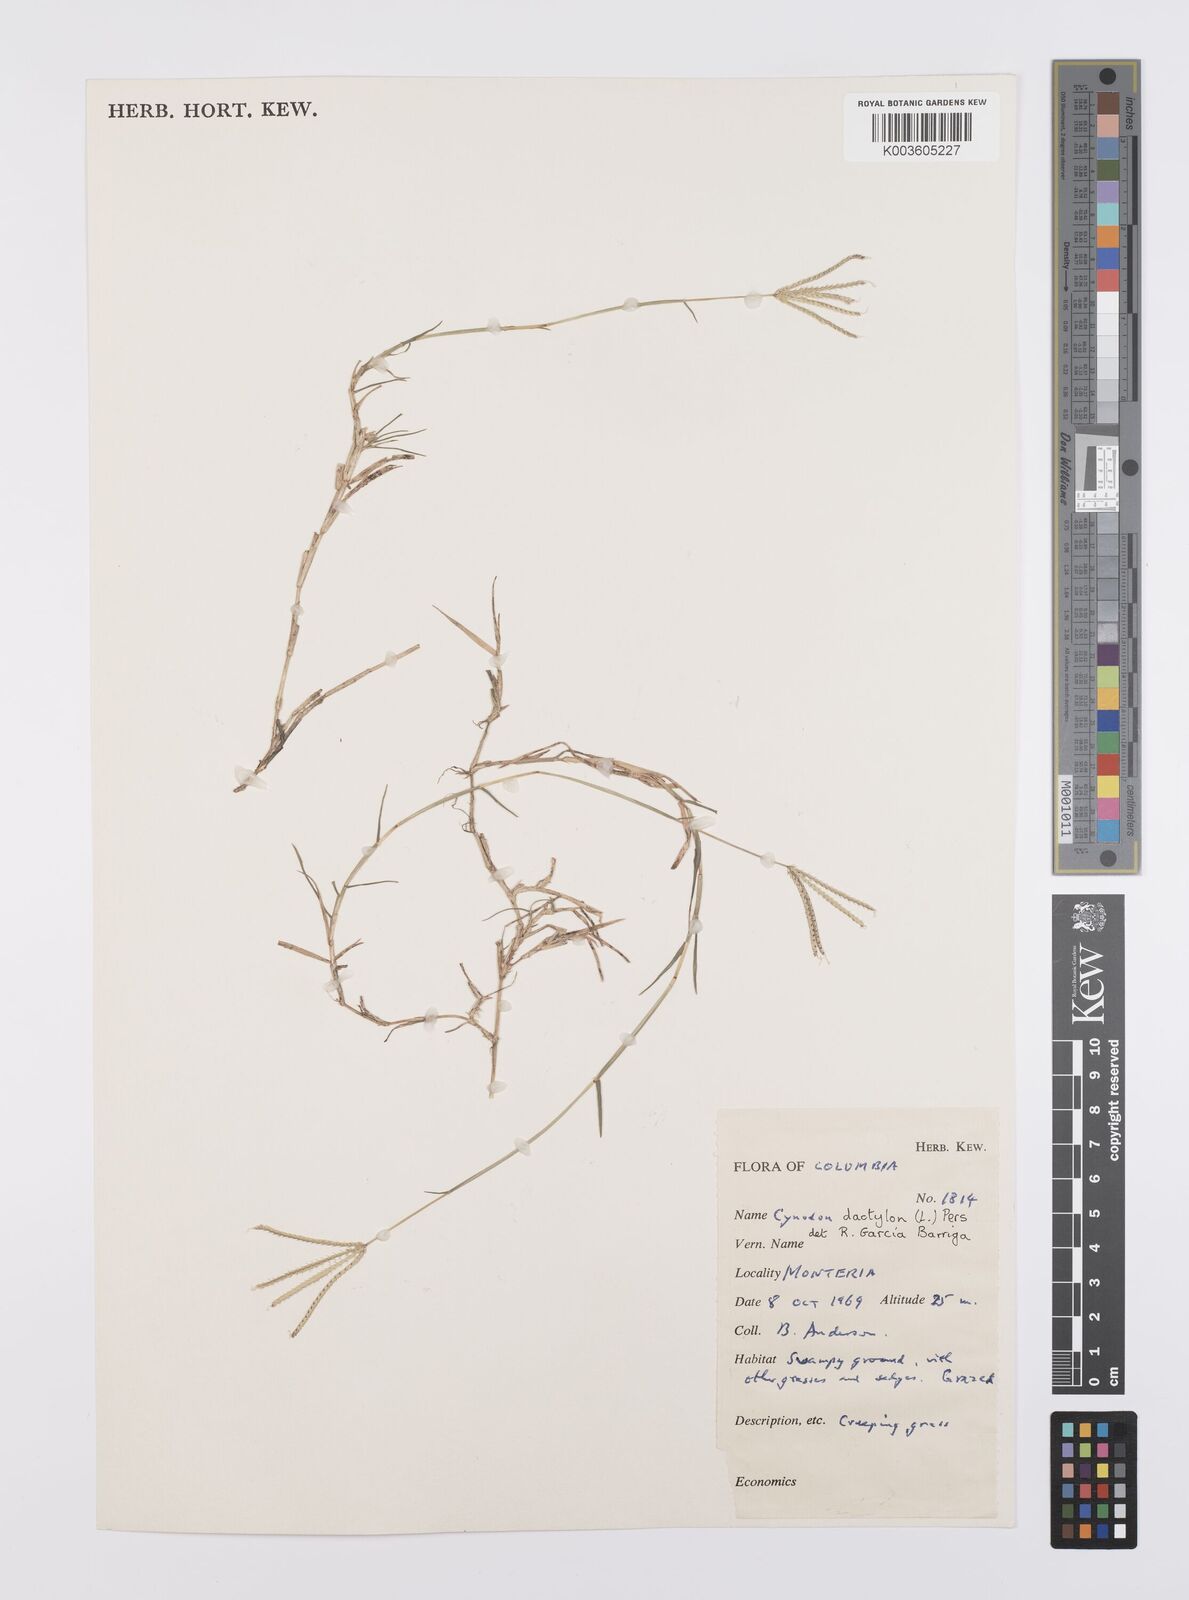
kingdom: Plantae
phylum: Tracheophyta
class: Liliopsida
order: Poales
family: Poaceae
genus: Cynodon
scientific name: Cynodon dactylon
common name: Bermuda grass
